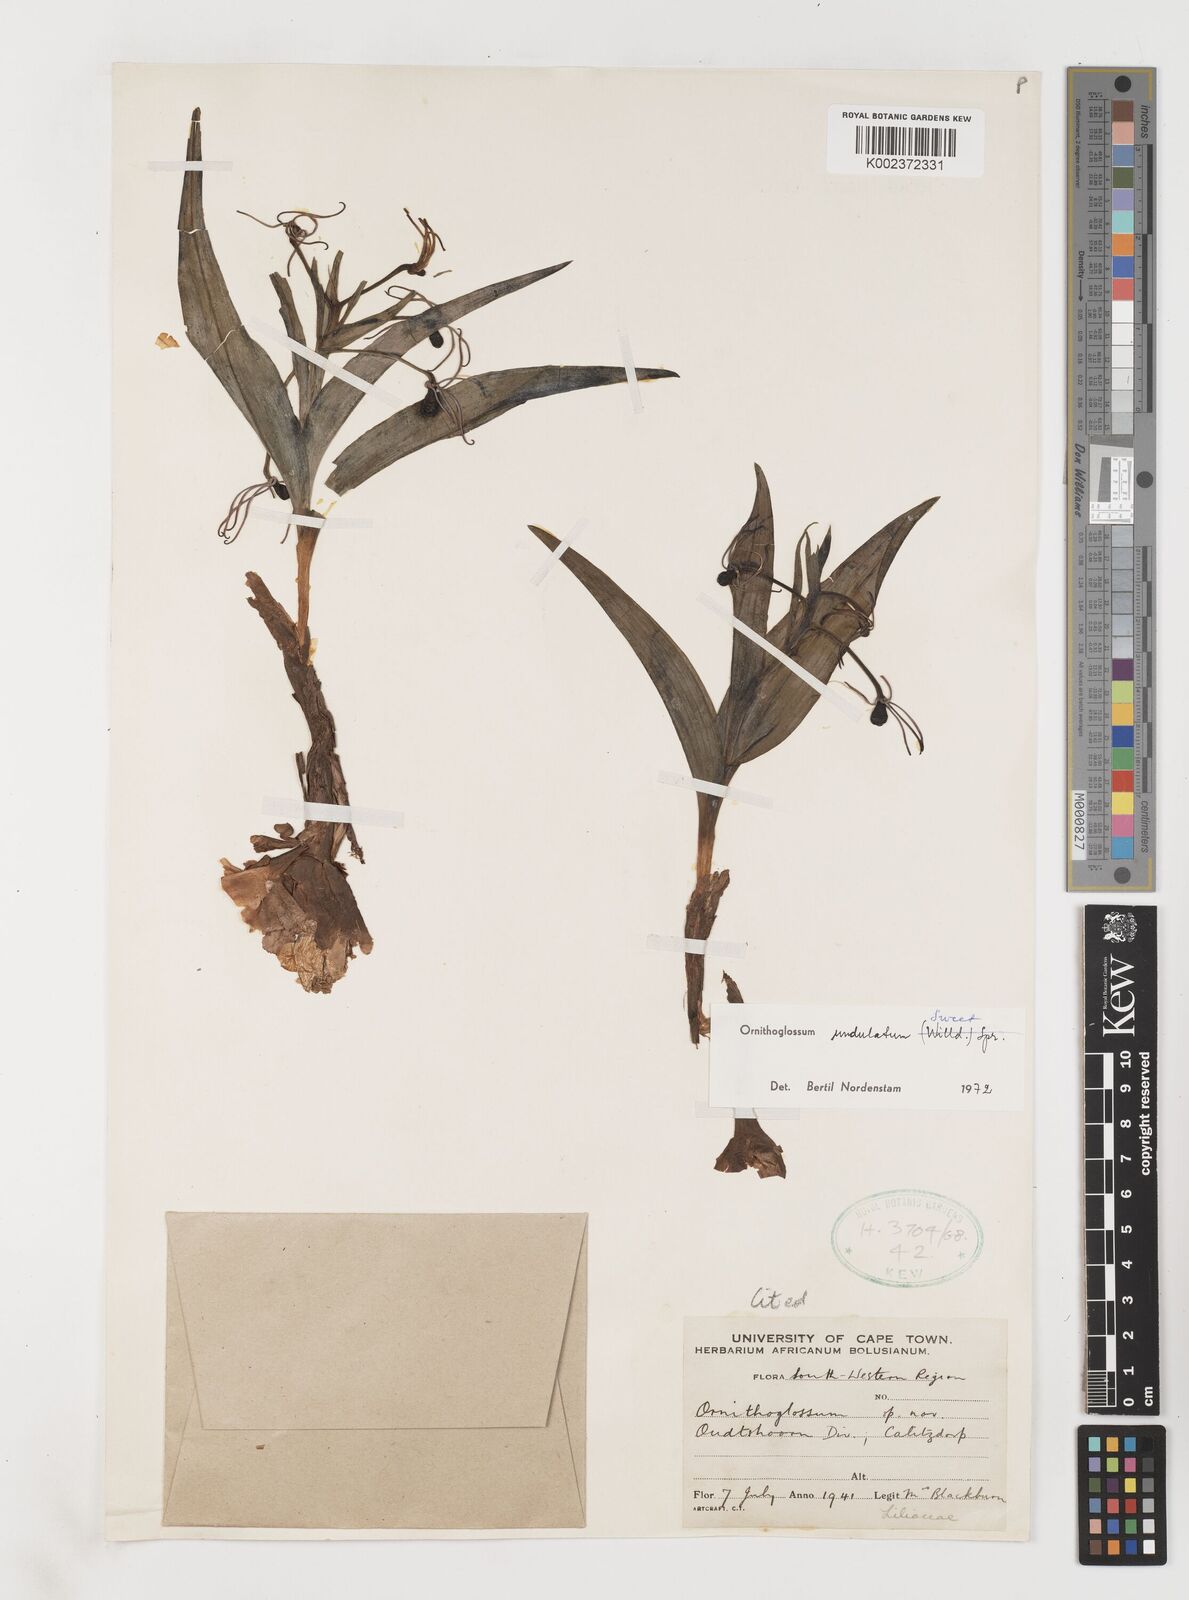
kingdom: Plantae
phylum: Tracheophyta
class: Liliopsida
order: Liliales
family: Colchicaceae
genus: Ornithoglossum
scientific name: Ornithoglossum undulatum
